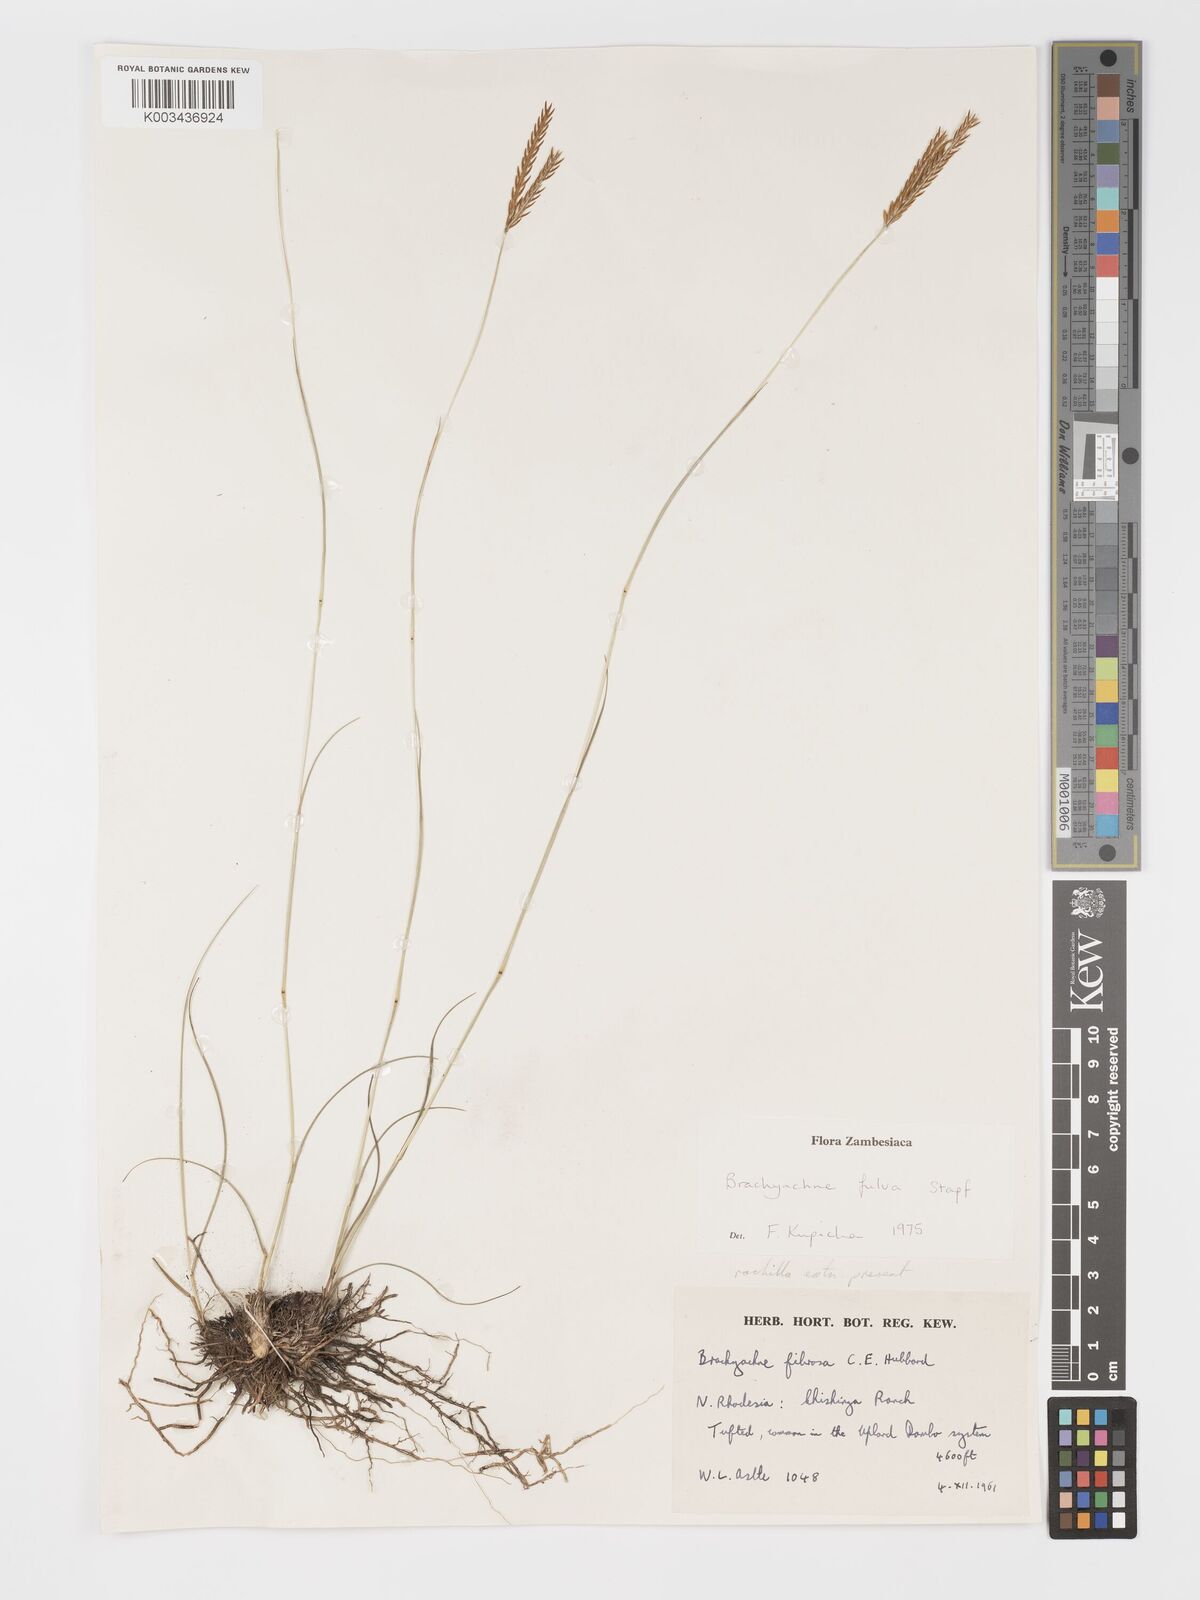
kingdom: Plantae
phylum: Tracheophyta
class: Liliopsida
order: Poales
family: Poaceae
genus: Micrachne
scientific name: Micrachne fulva
